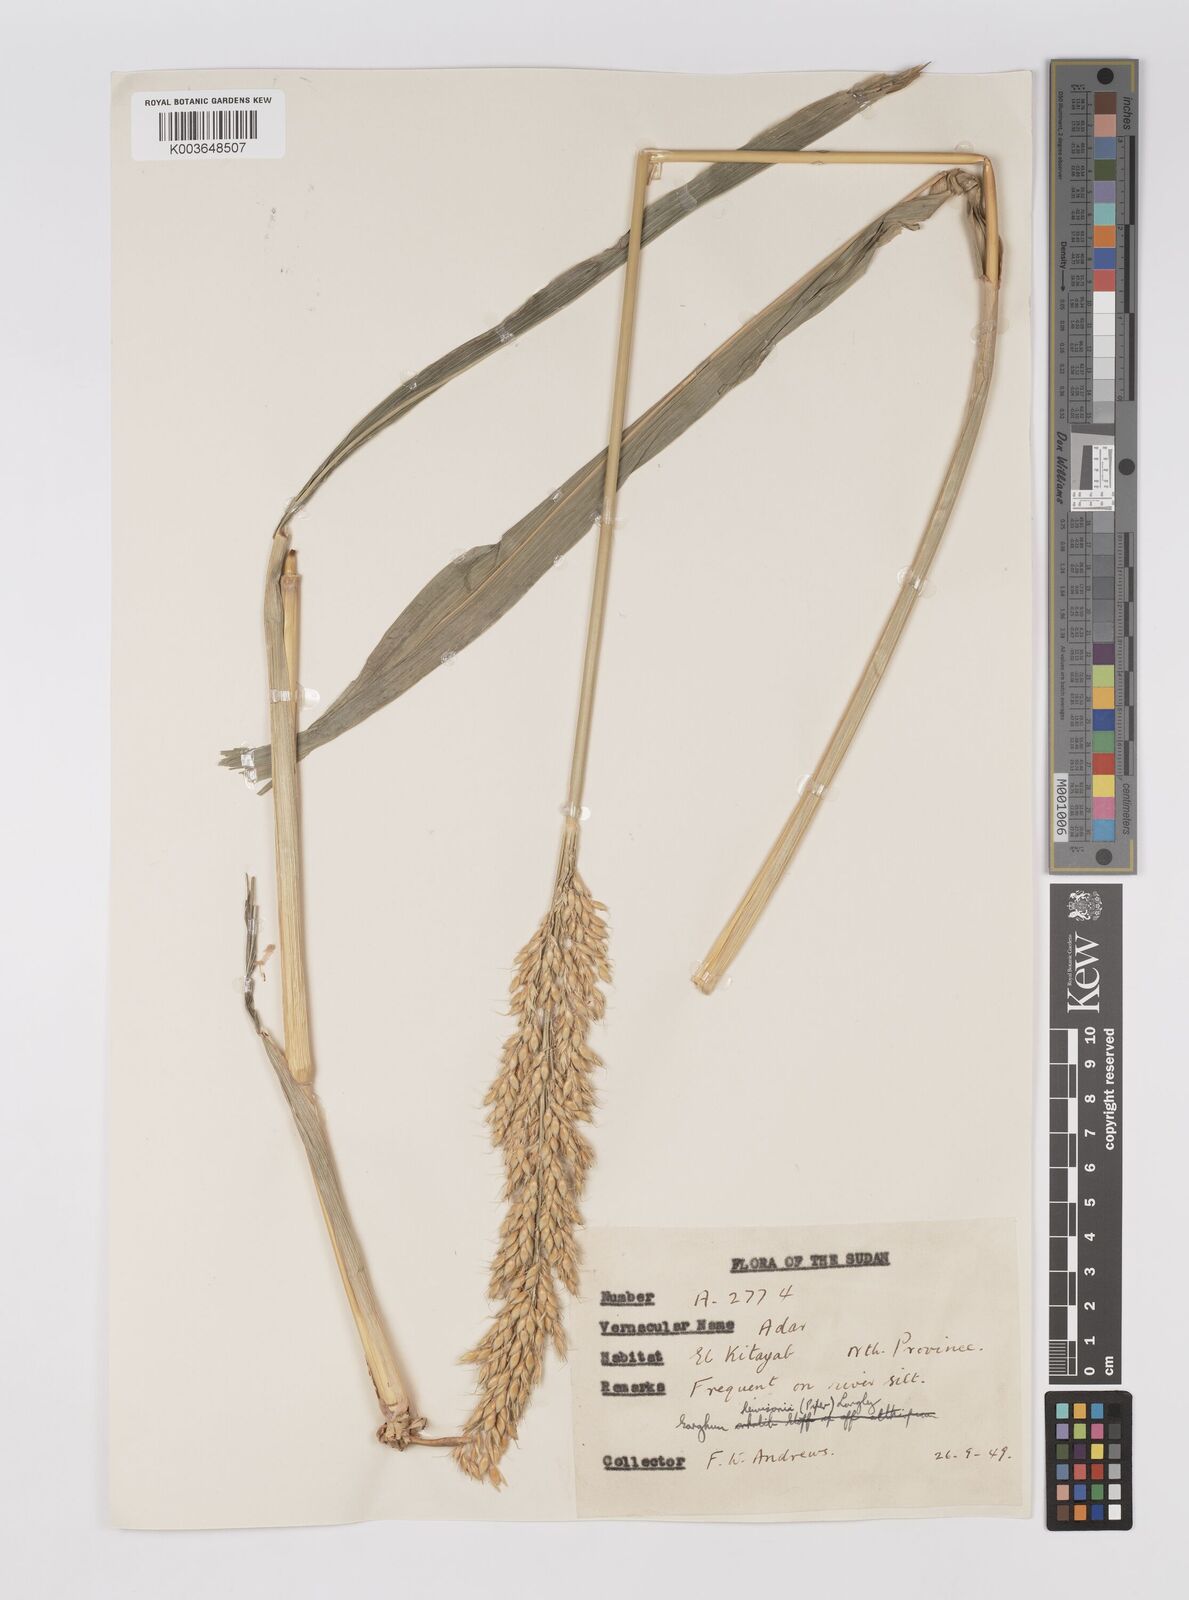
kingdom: Plantae
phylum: Tracheophyta
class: Liliopsida
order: Poales
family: Poaceae
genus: Sorghum
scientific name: Sorghum drummondii
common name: Sudangrass
